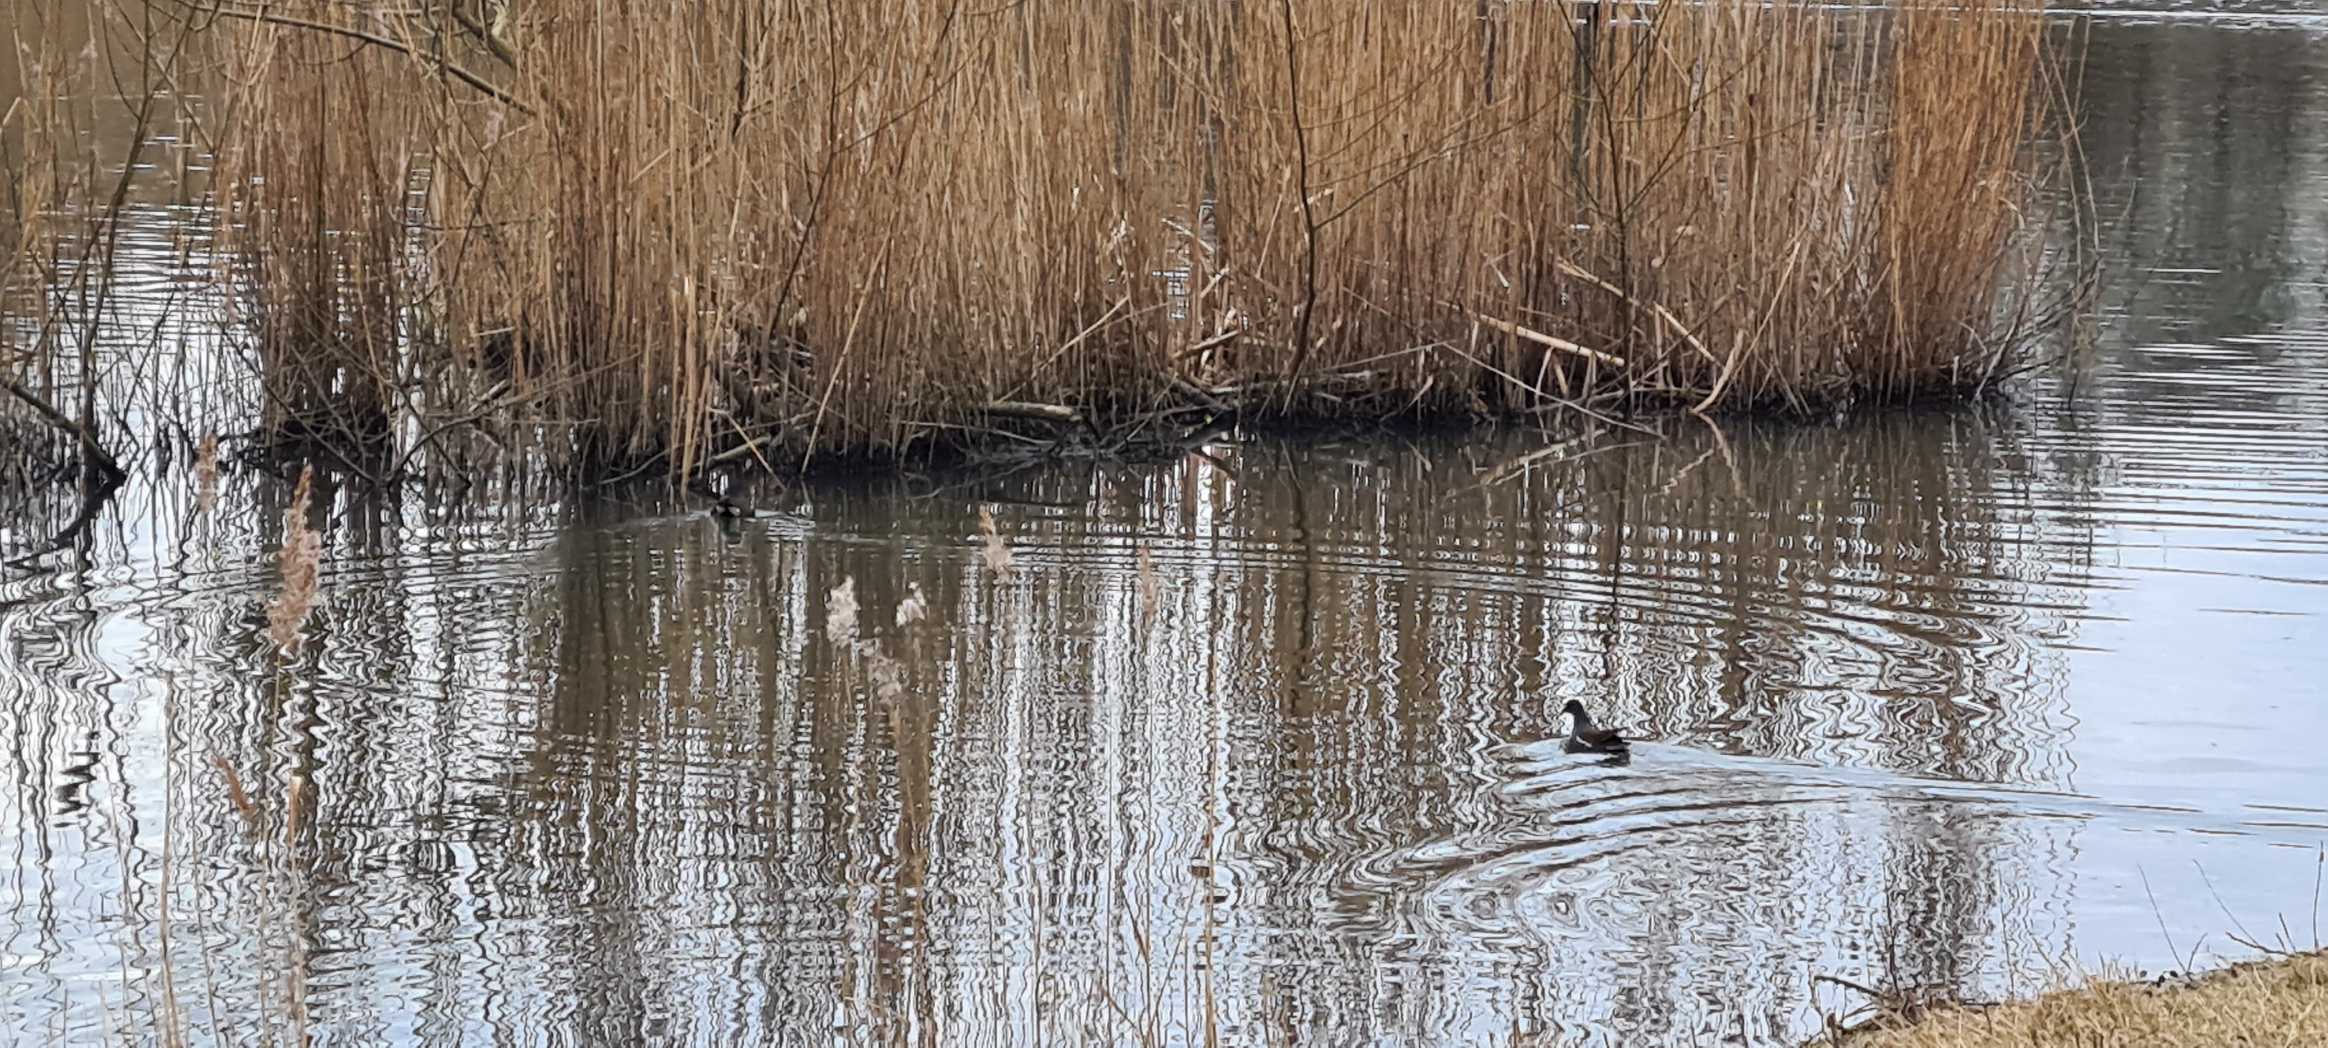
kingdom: Animalia
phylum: Chordata
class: Aves
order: Gruiformes
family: Rallidae
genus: Gallinula
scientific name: Gallinula chloropus
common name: Grønbenet rørhøne
